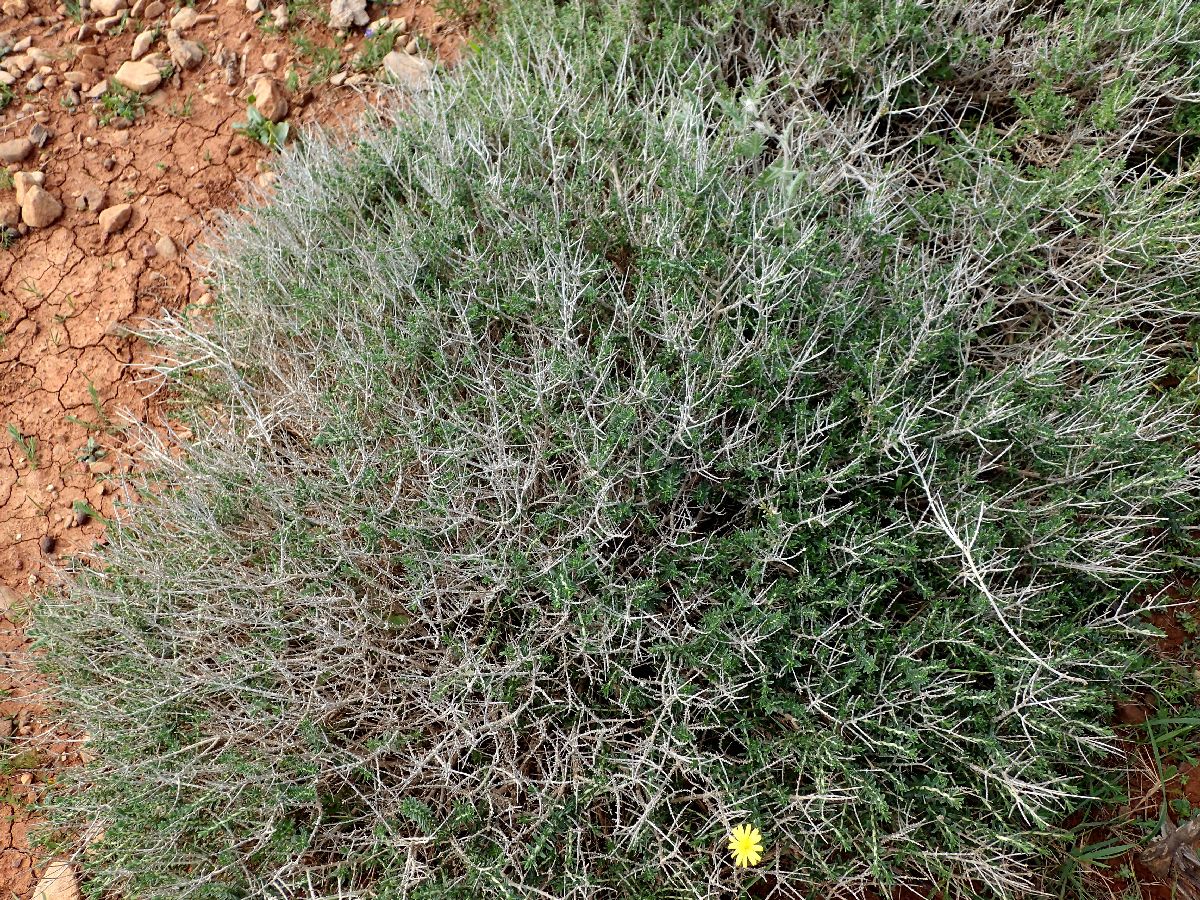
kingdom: Plantae
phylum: Tracheophyta
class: Magnoliopsida
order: Lamiales
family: Lamiaceae
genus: Thymbra
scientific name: Thymbra capitata
